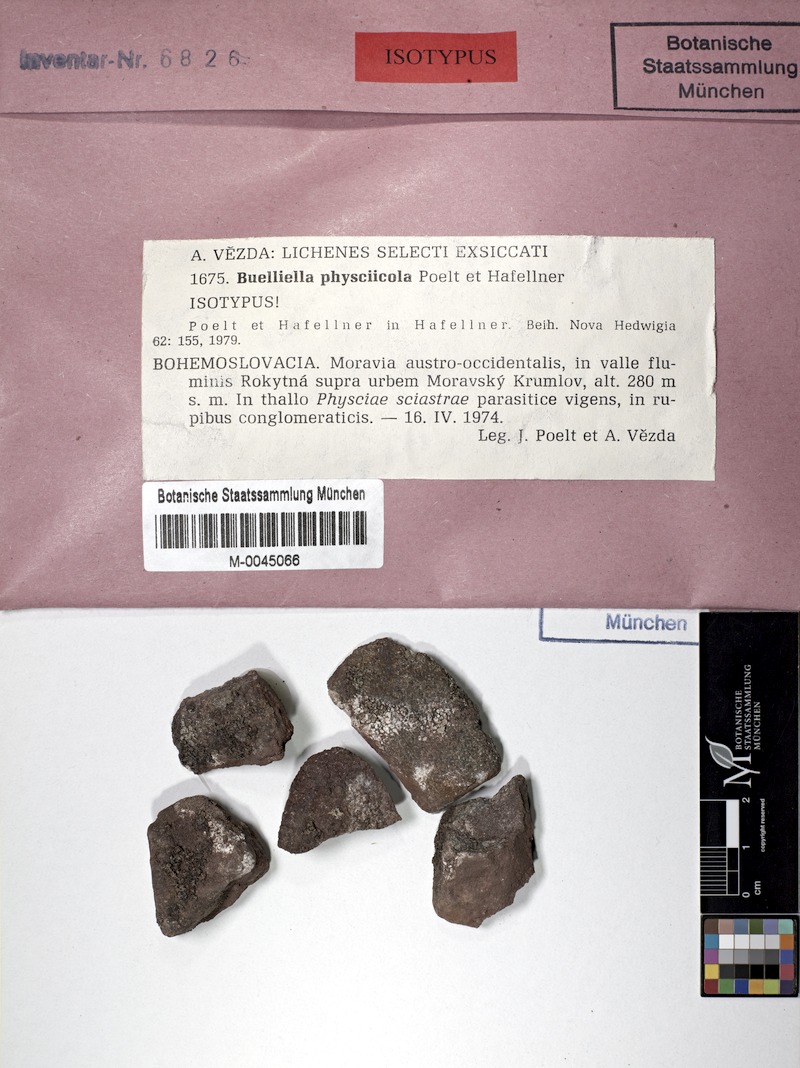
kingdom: Fungi
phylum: Ascomycota
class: Lecanoromycetes
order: Caliciales
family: Physciaceae
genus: Phaeophyscia
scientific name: Phaeophyscia sciastra
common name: Dark shadow lichen
